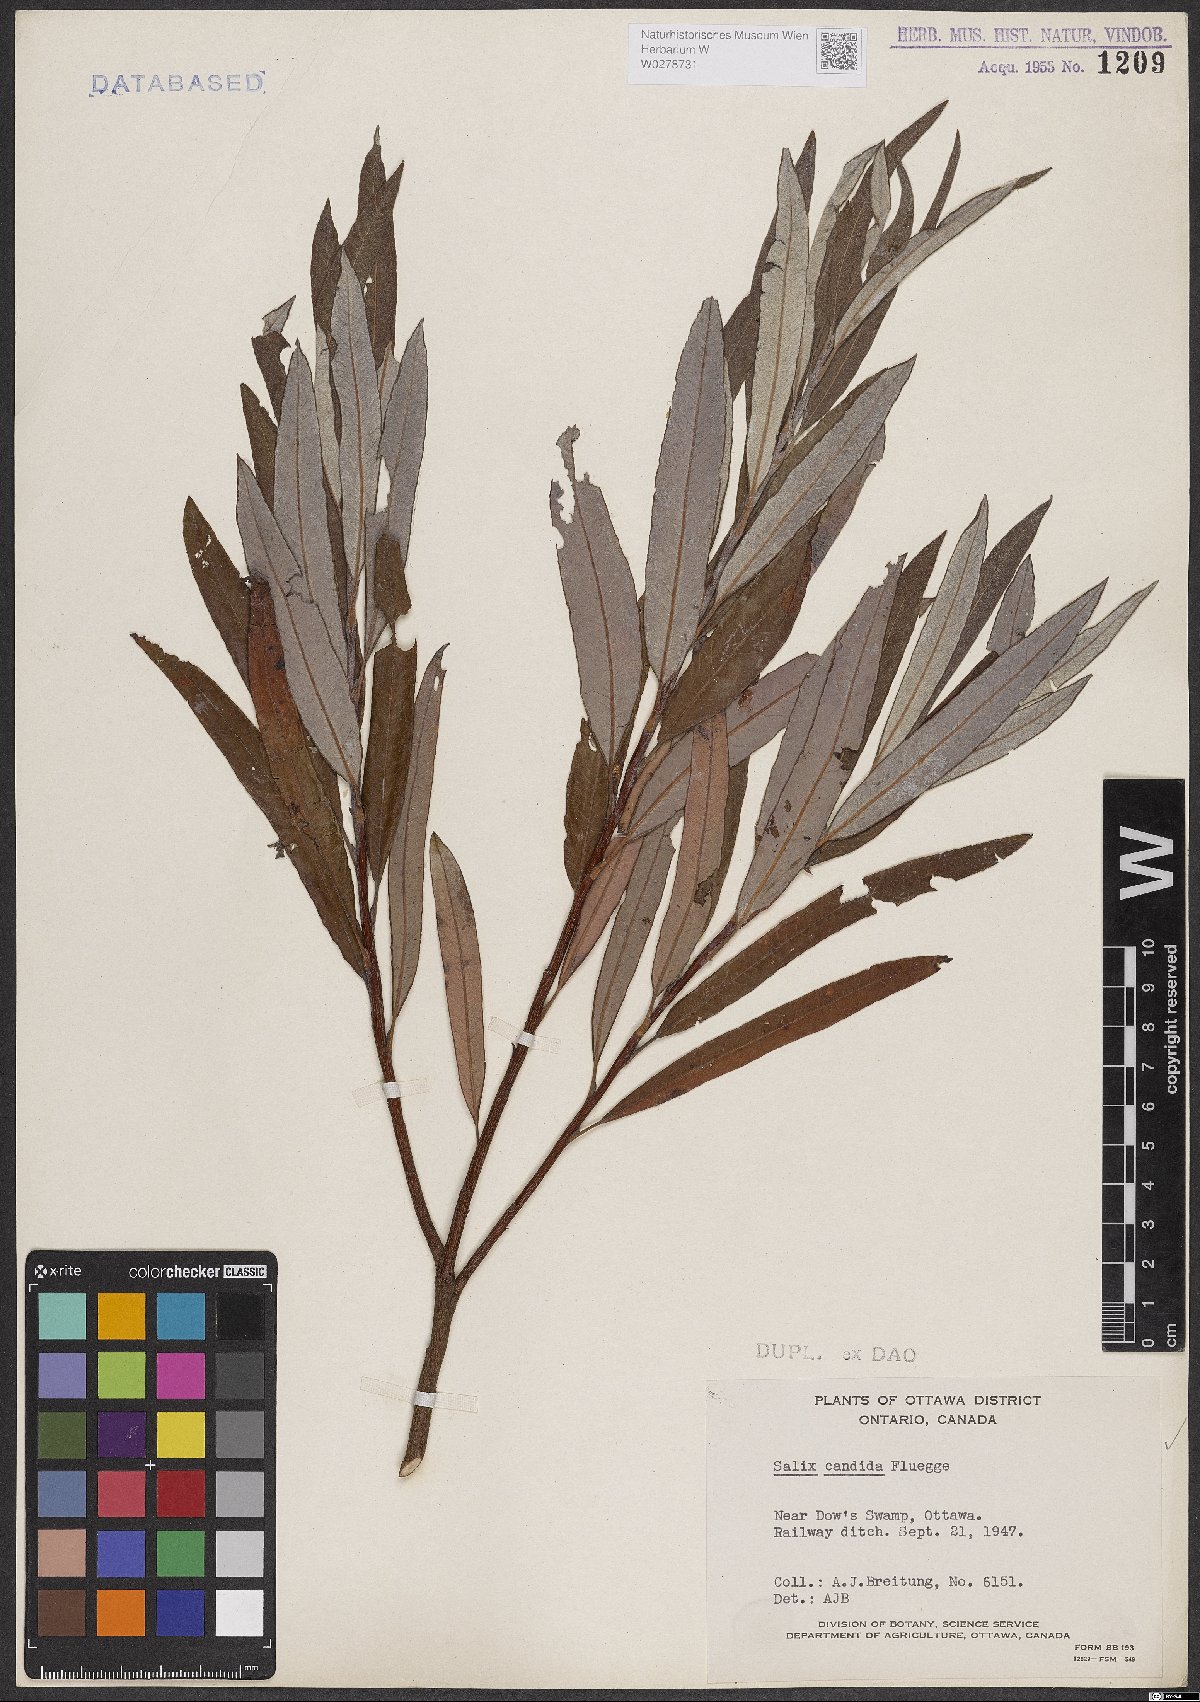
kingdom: Plantae
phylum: Tracheophyta
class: Magnoliopsida
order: Malpighiales
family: Salicaceae
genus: Salix
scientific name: Salix candida
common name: Hoary willow
